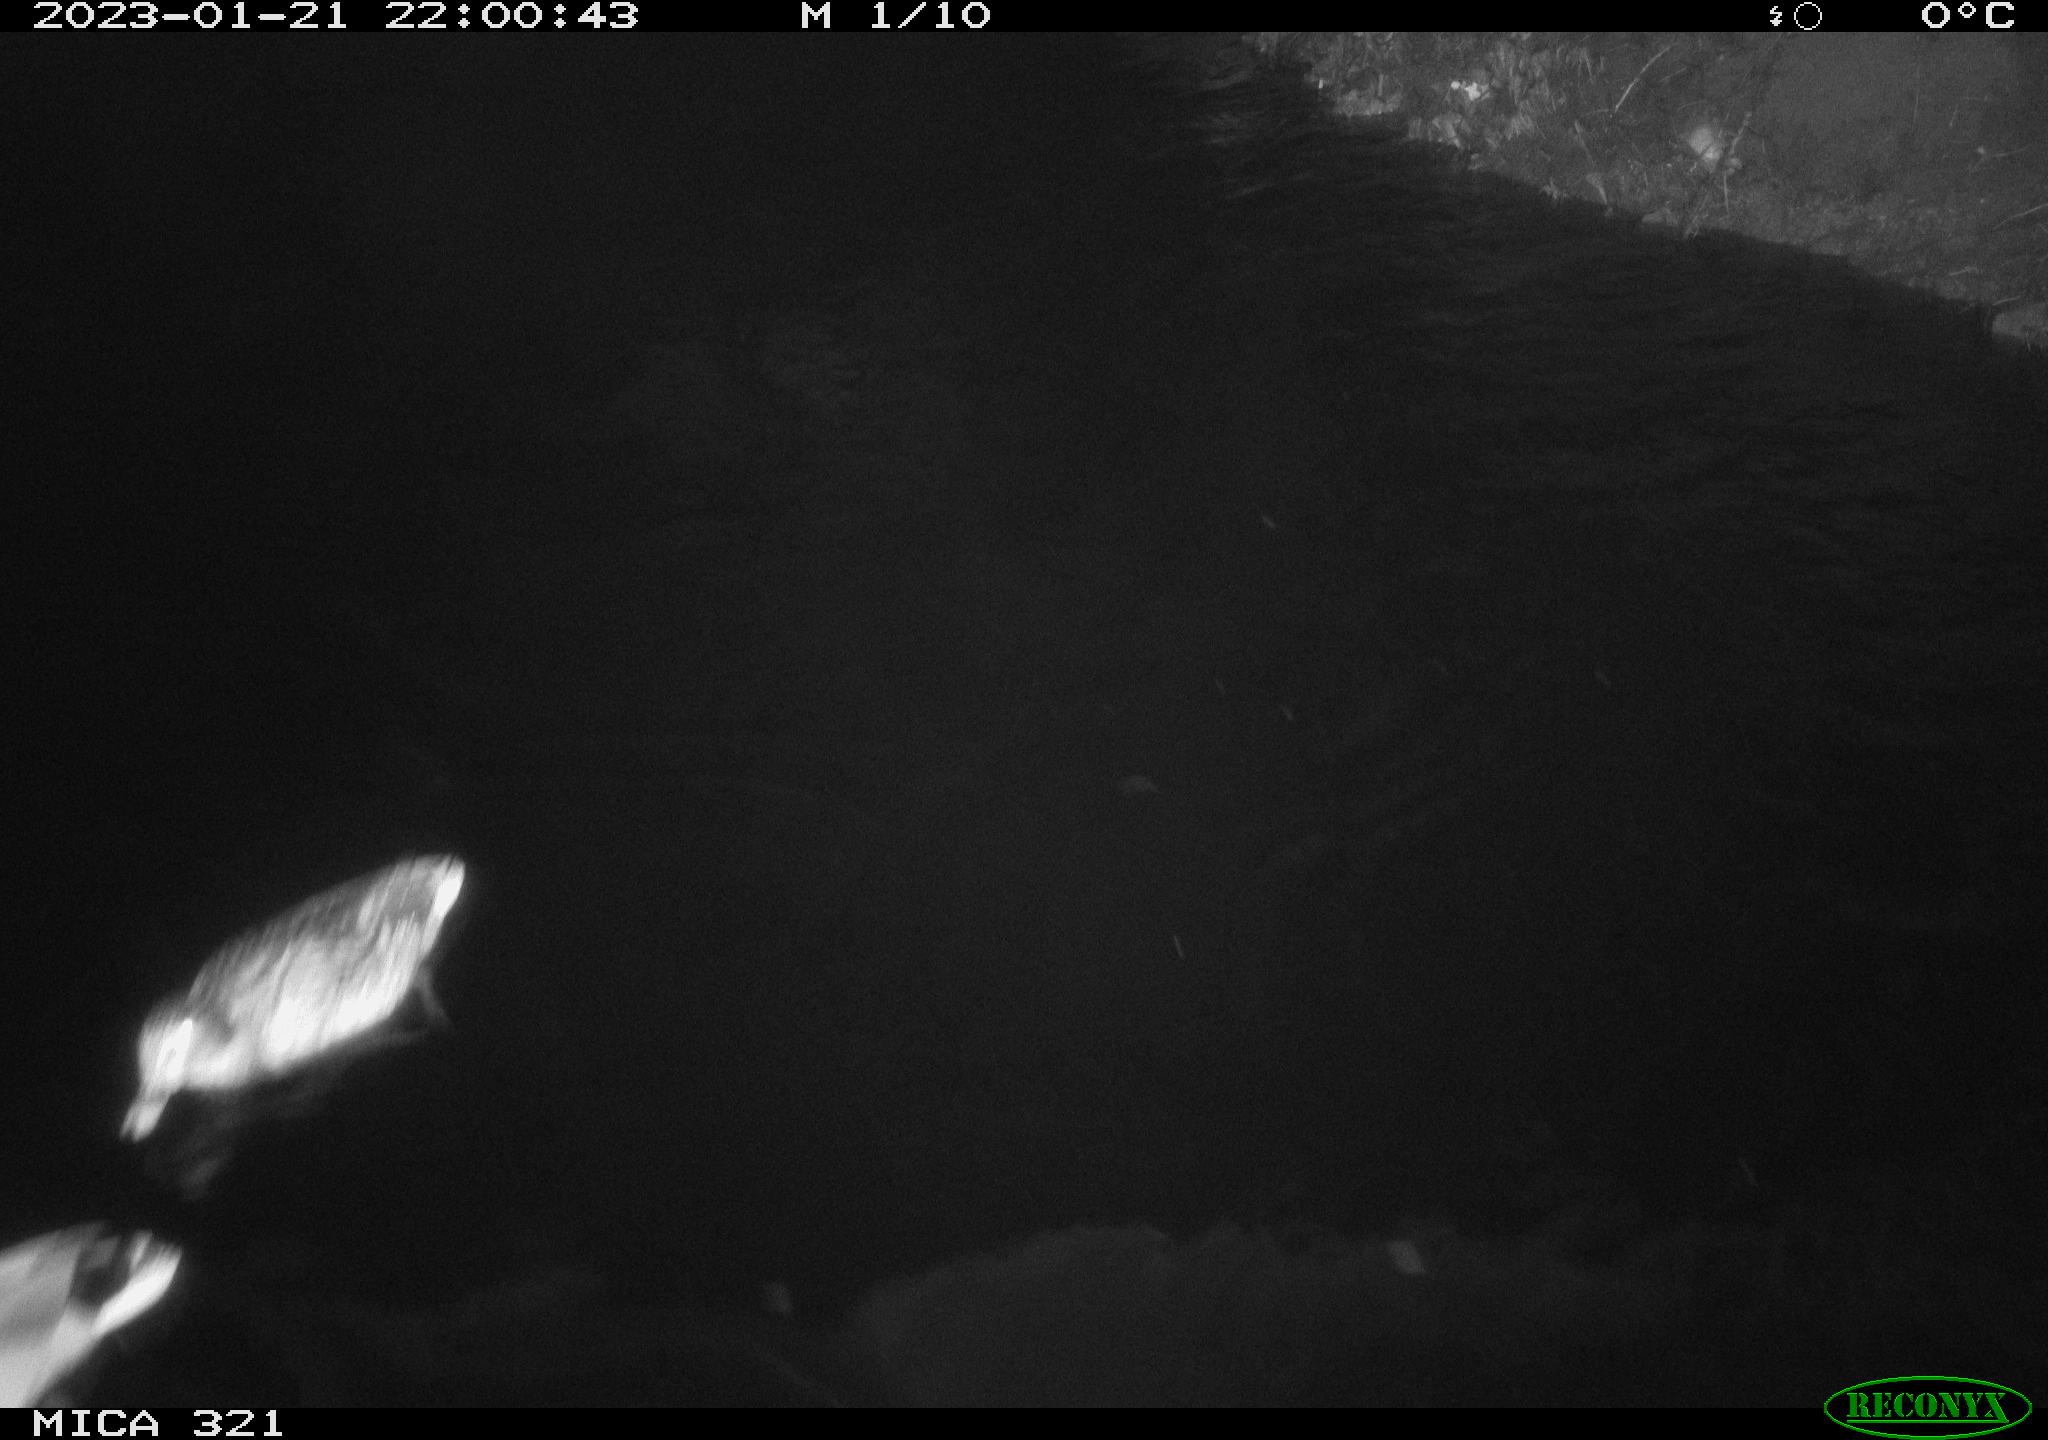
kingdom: Animalia
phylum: Chordata
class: Aves
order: Anseriformes
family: Anatidae
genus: Anas
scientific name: Anas
